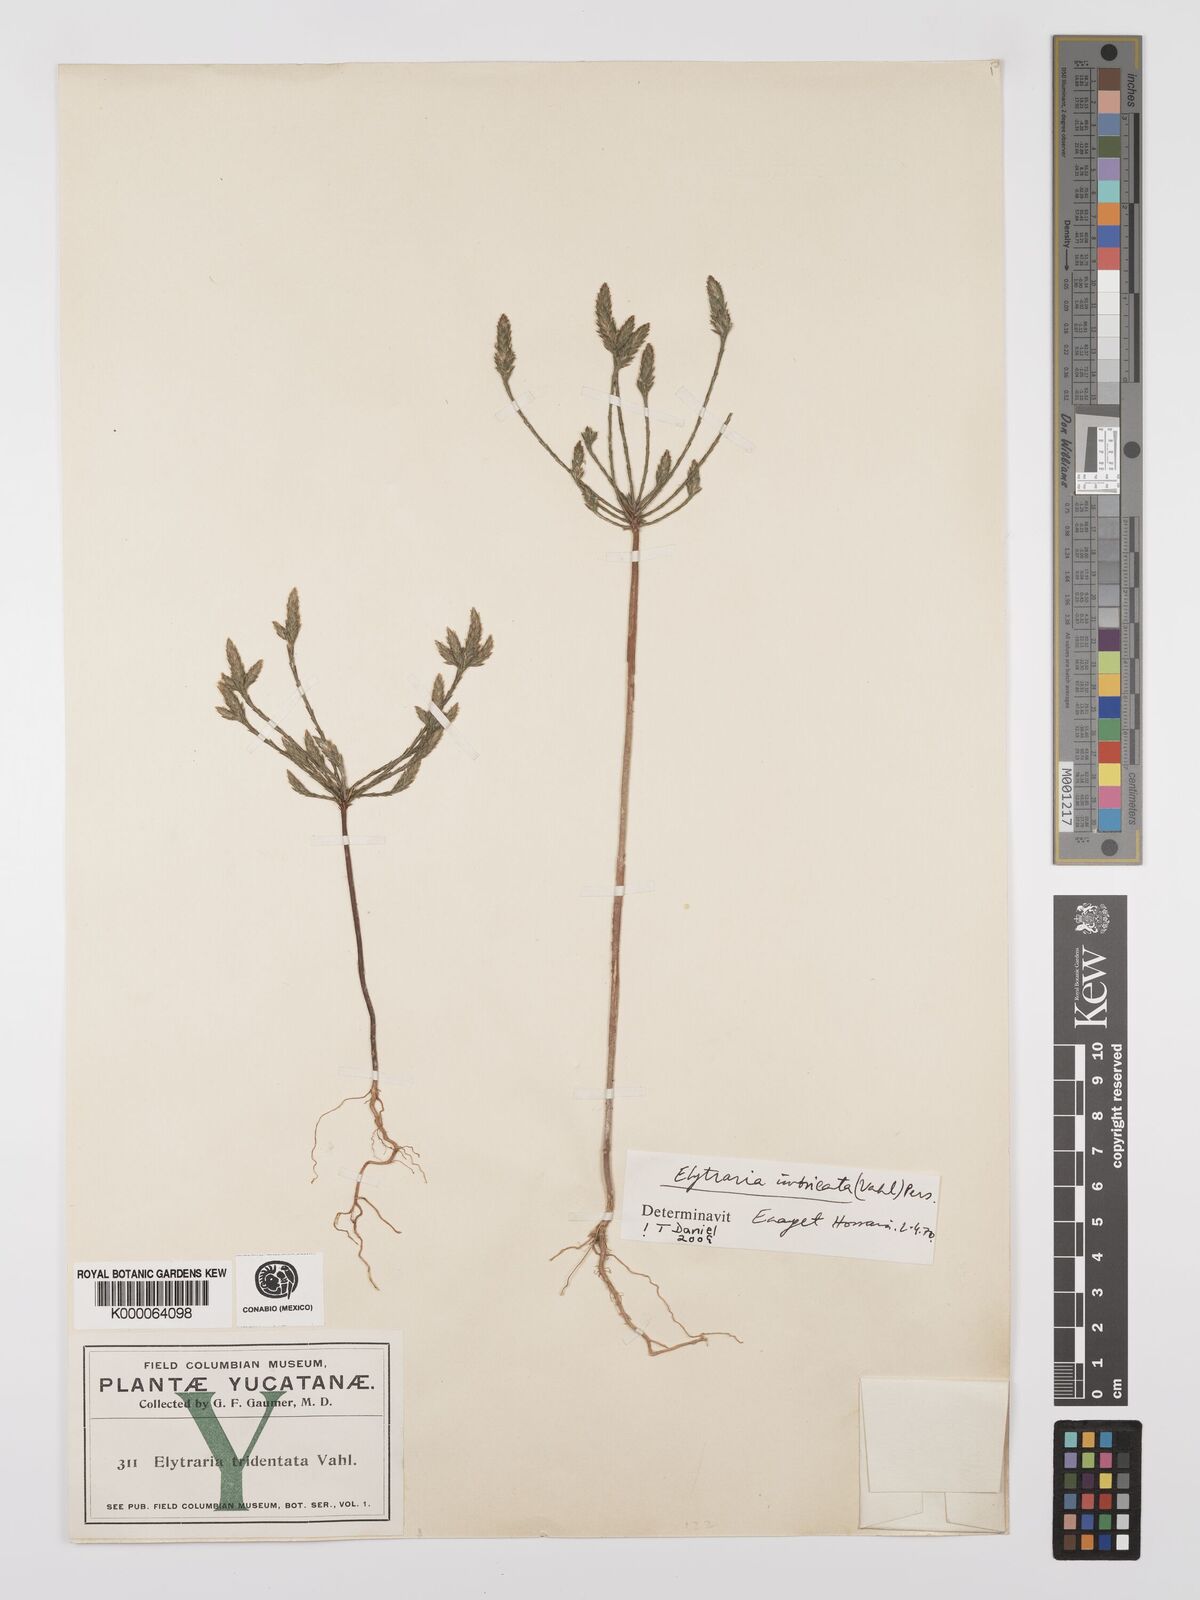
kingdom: Plantae
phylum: Tracheophyta
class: Magnoliopsida
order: Lamiales
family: Acanthaceae
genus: Elytraria
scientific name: Elytraria imbricata
